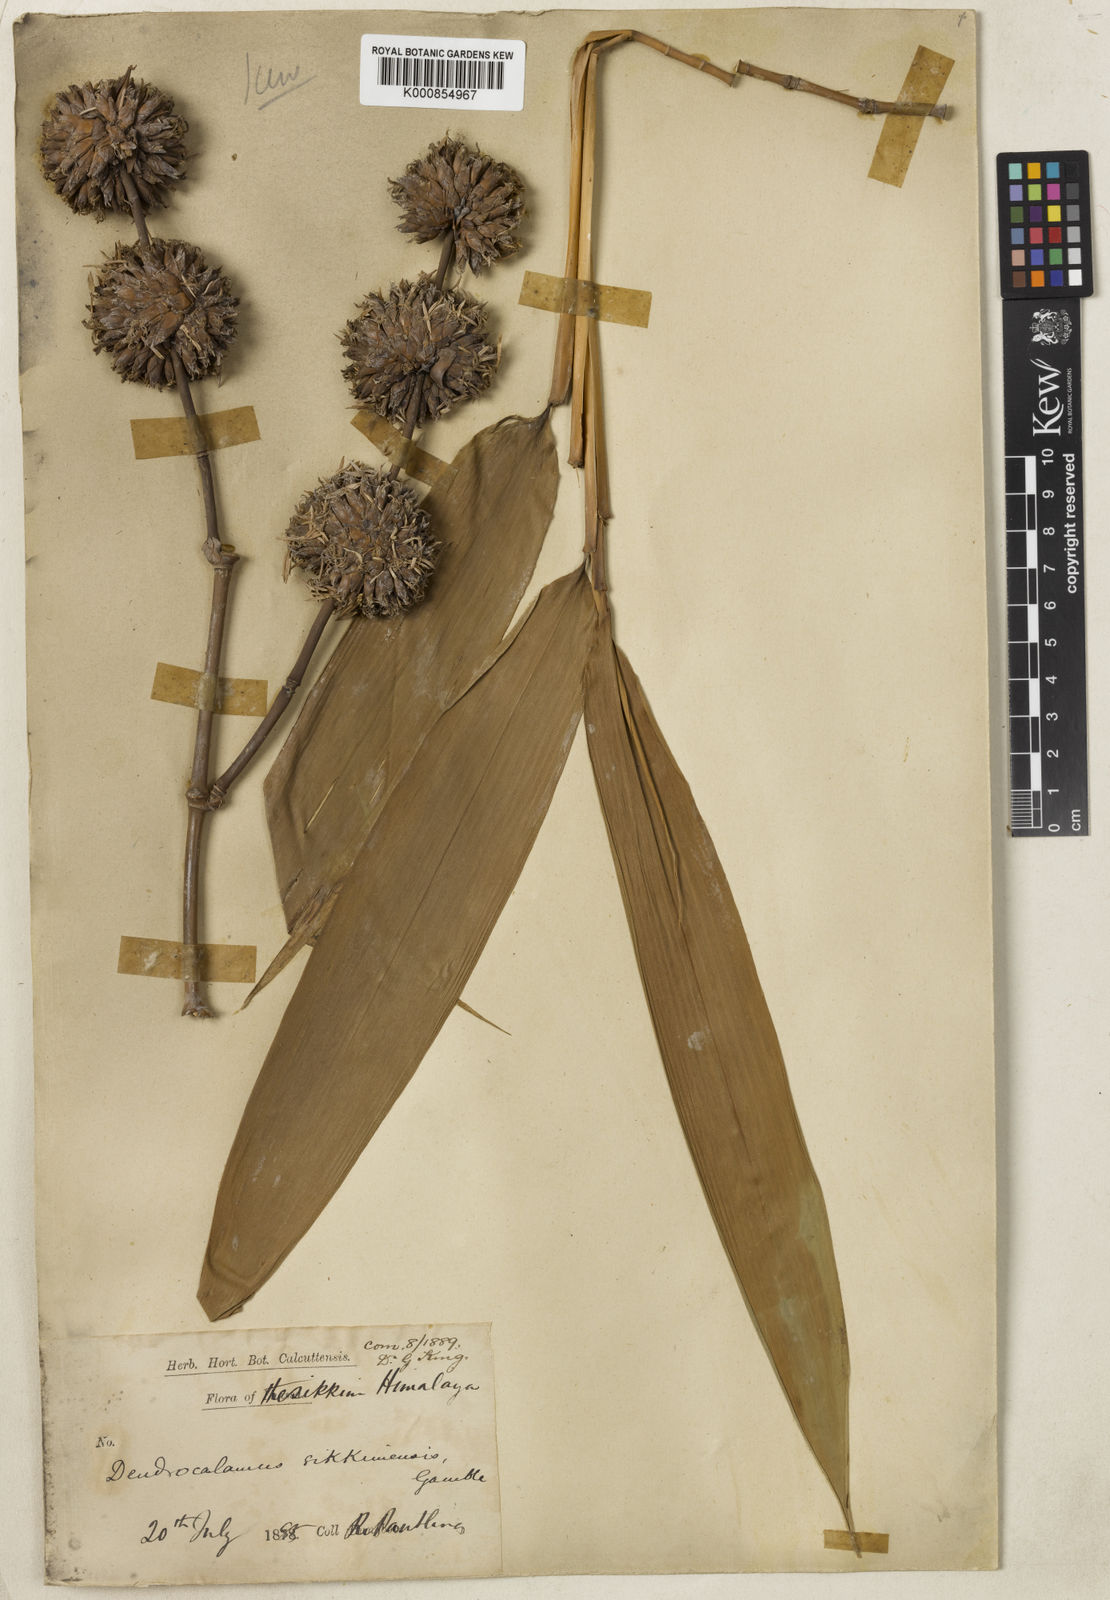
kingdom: Plantae
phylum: Tracheophyta
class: Liliopsida
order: Poales
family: Poaceae
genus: Dendrocalamus
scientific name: Dendrocalamus sikkimensis
